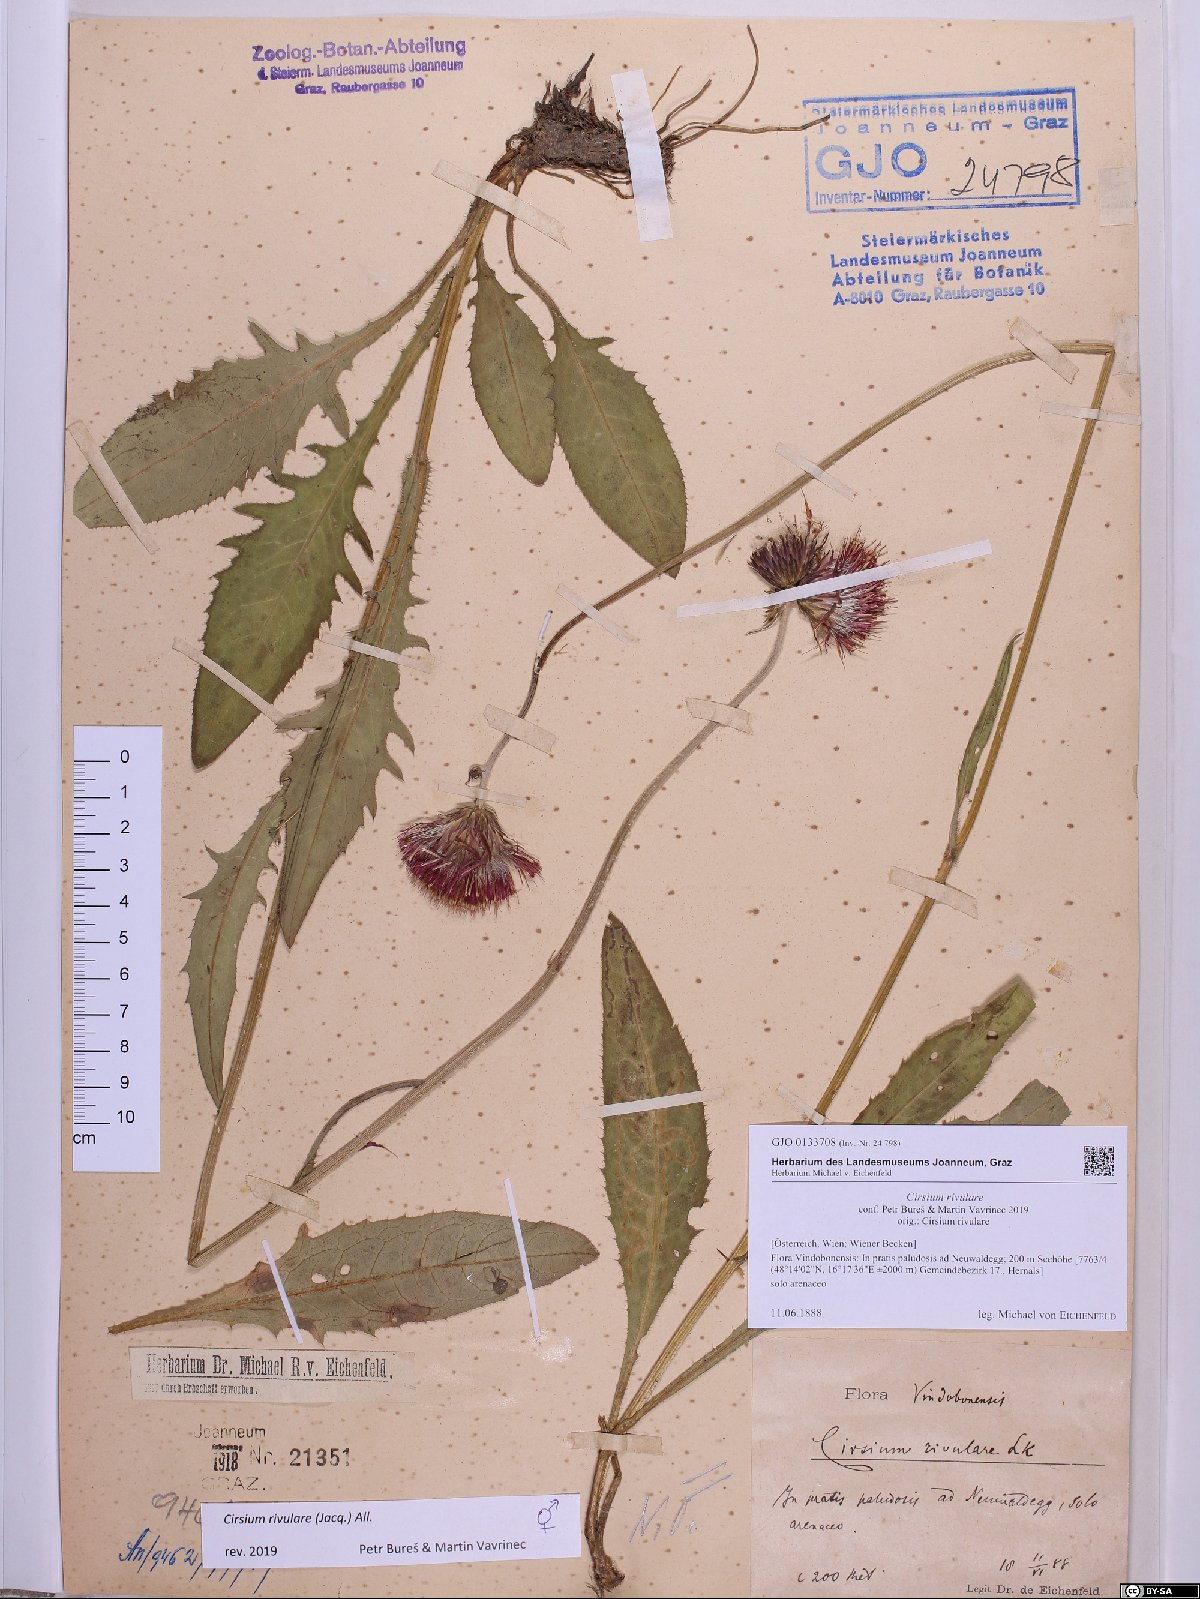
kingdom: Plantae
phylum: Tracheophyta
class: Magnoliopsida
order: Asterales
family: Asteraceae
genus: Cirsium
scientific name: Cirsium rivulare
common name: Brook thistle
